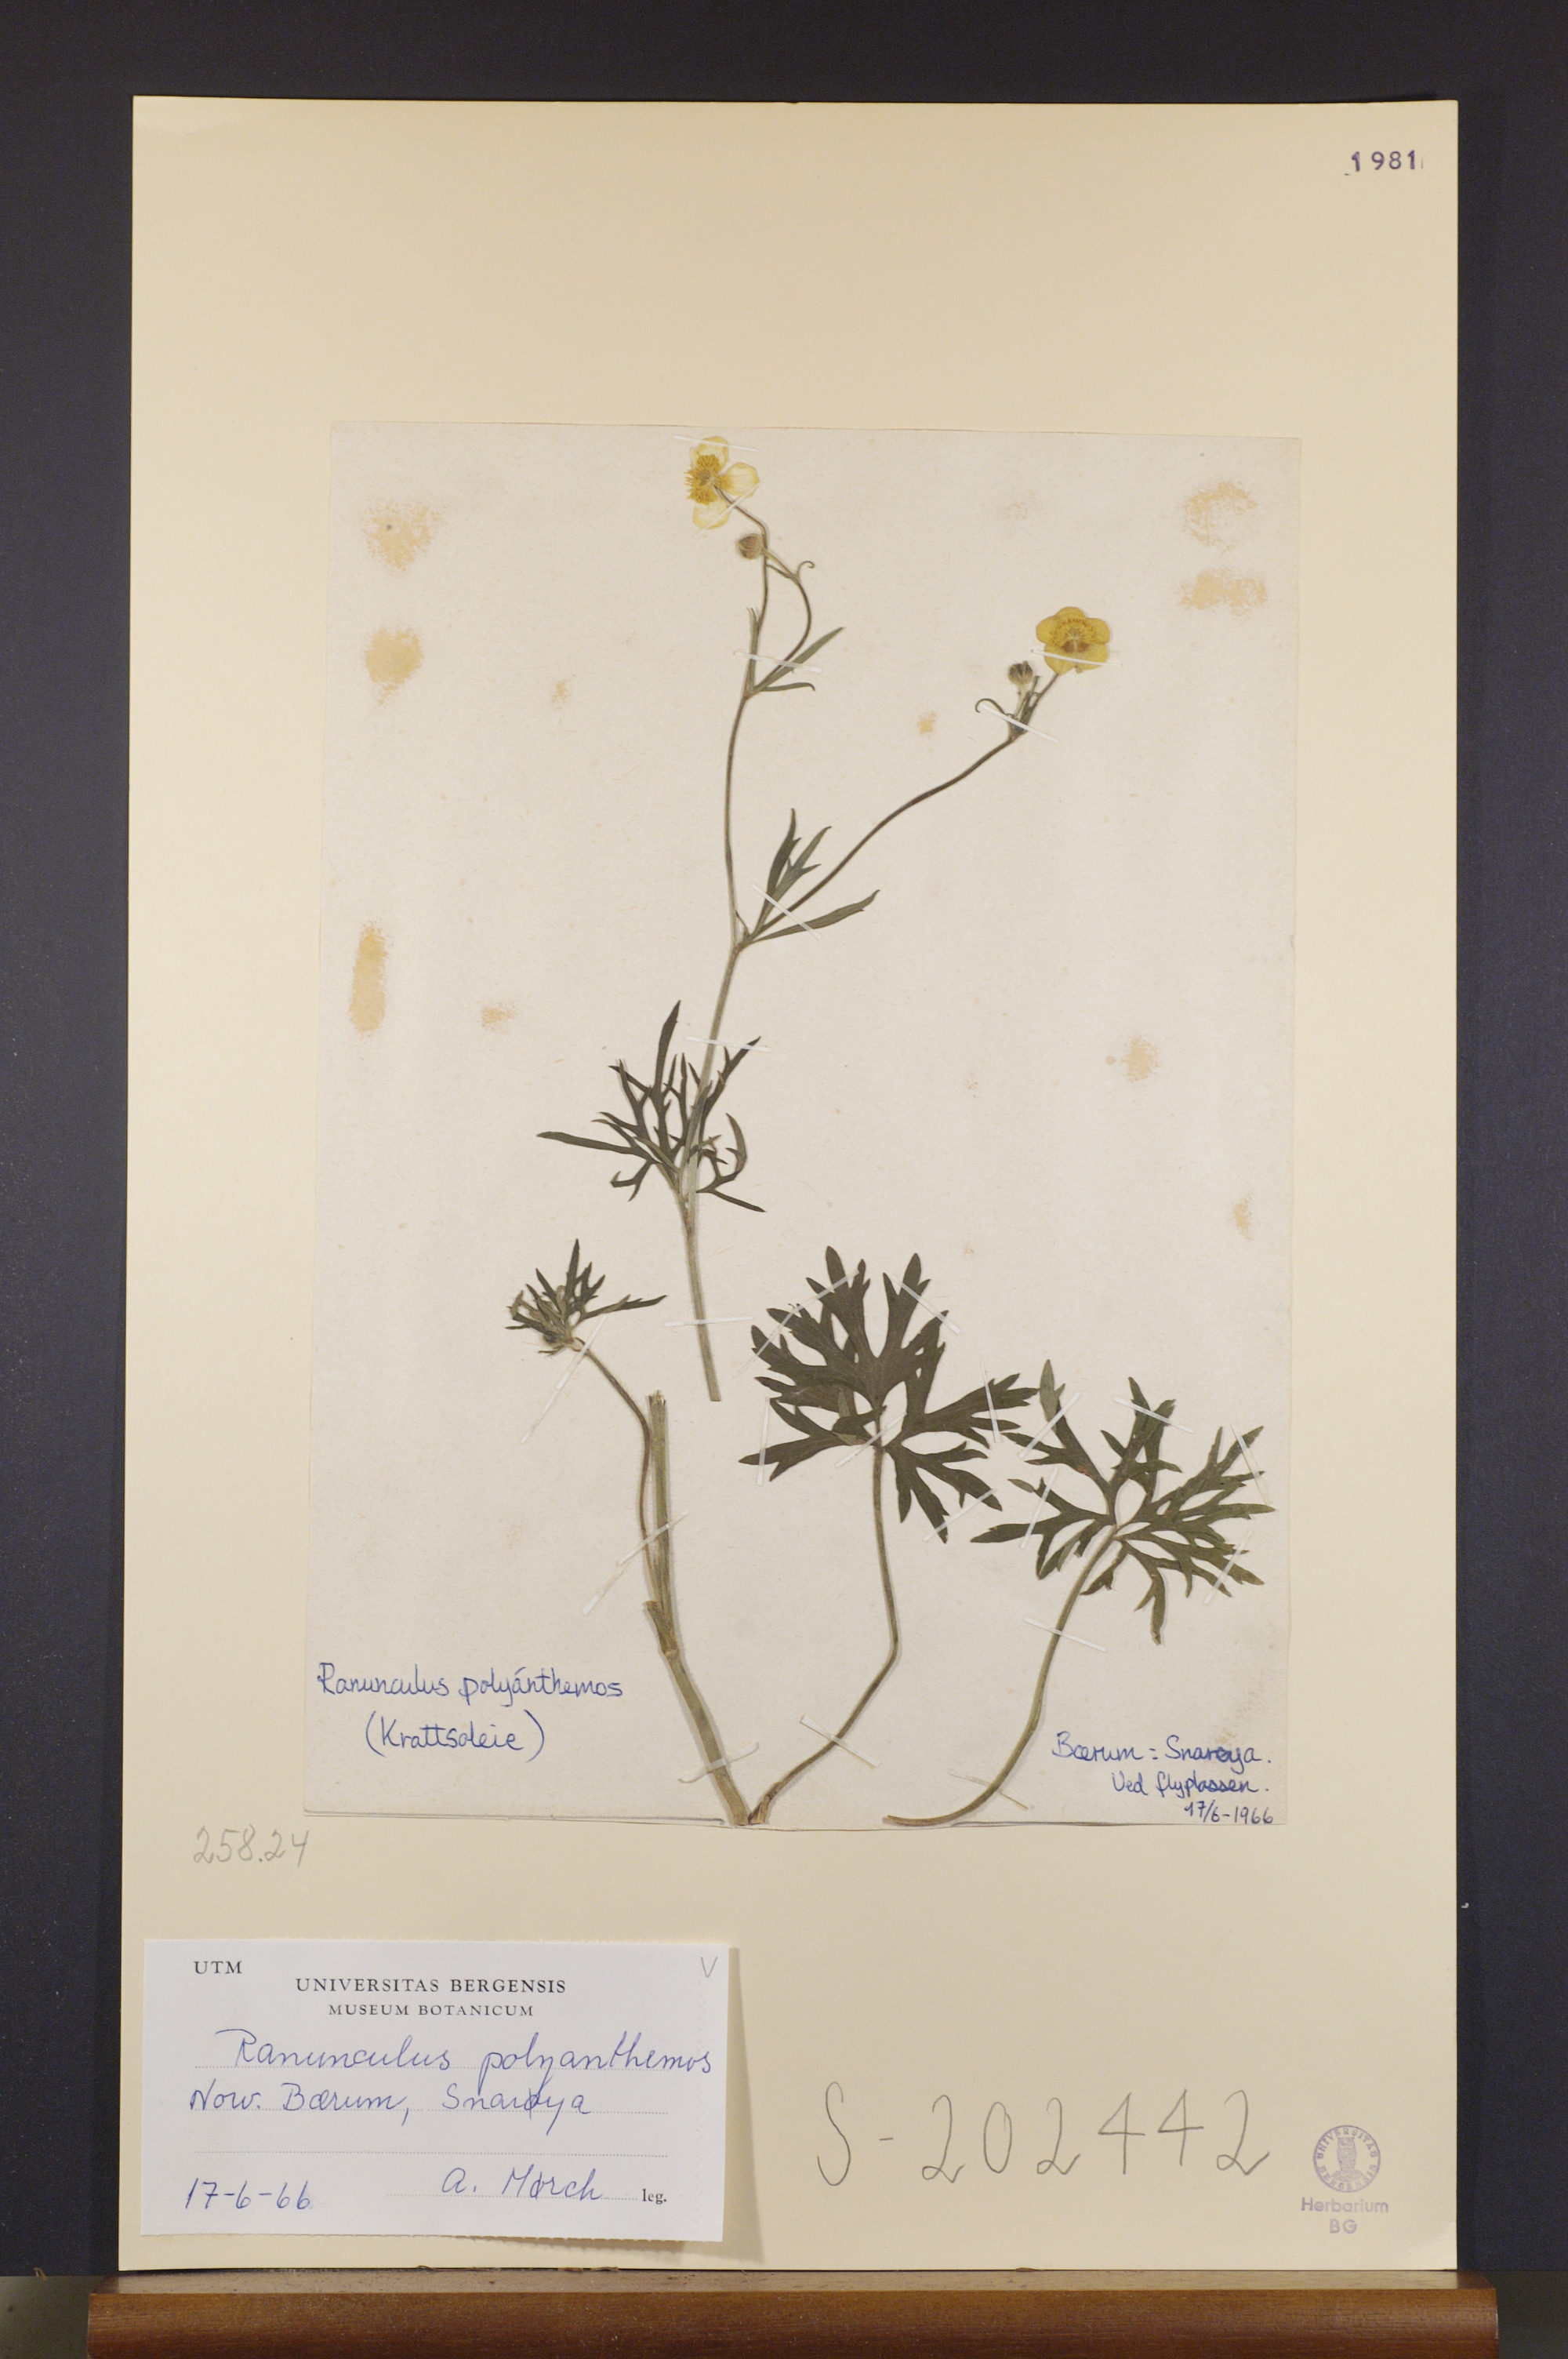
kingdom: Plantae
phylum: Tracheophyta
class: Magnoliopsida
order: Ranunculales
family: Ranunculaceae
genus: Ranunculus
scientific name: Ranunculus polyanthemos
